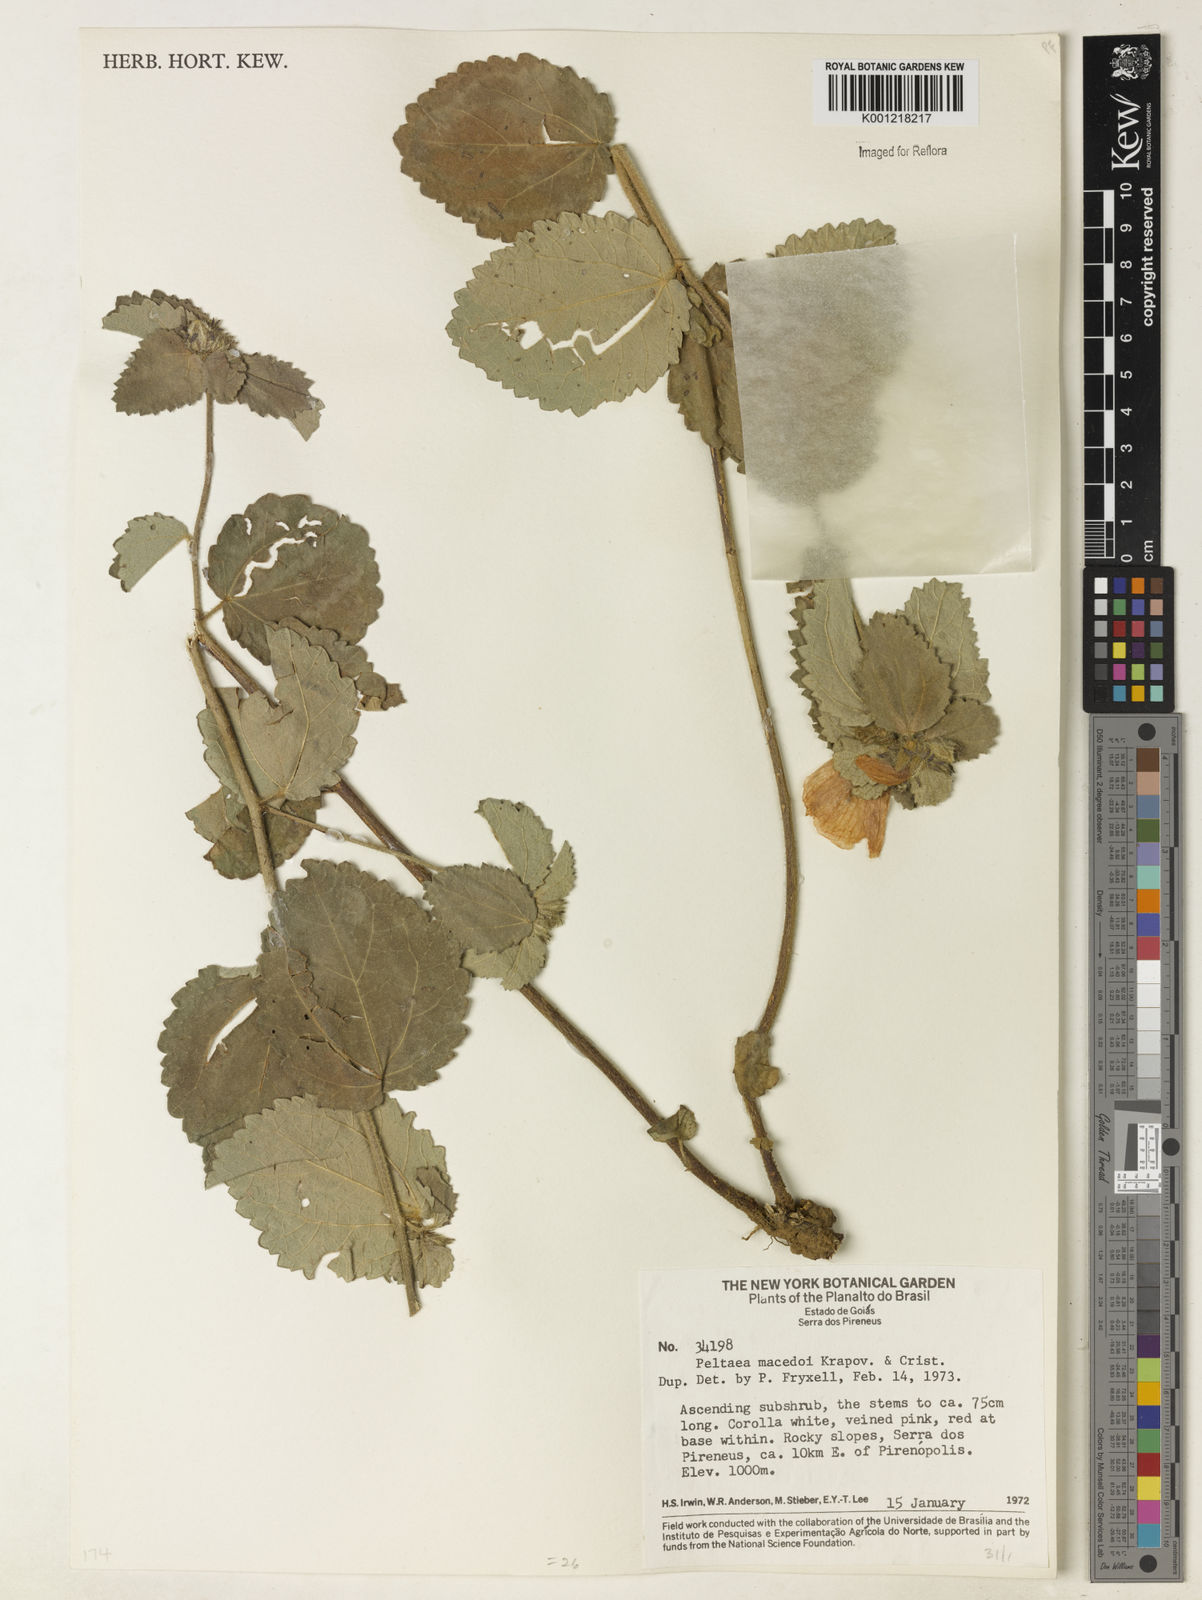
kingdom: Plantae
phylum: Tracheophyta
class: Magnoliopsida
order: Malvales
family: Malvaceae
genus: Peltaea
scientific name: Peltaea
